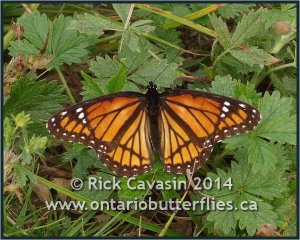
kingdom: Animalia
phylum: Arthropoda
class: Insecta
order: Lepidoptera
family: Nymphalidae
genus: Limenitis
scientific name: Limenitis archippus
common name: Viceroy
